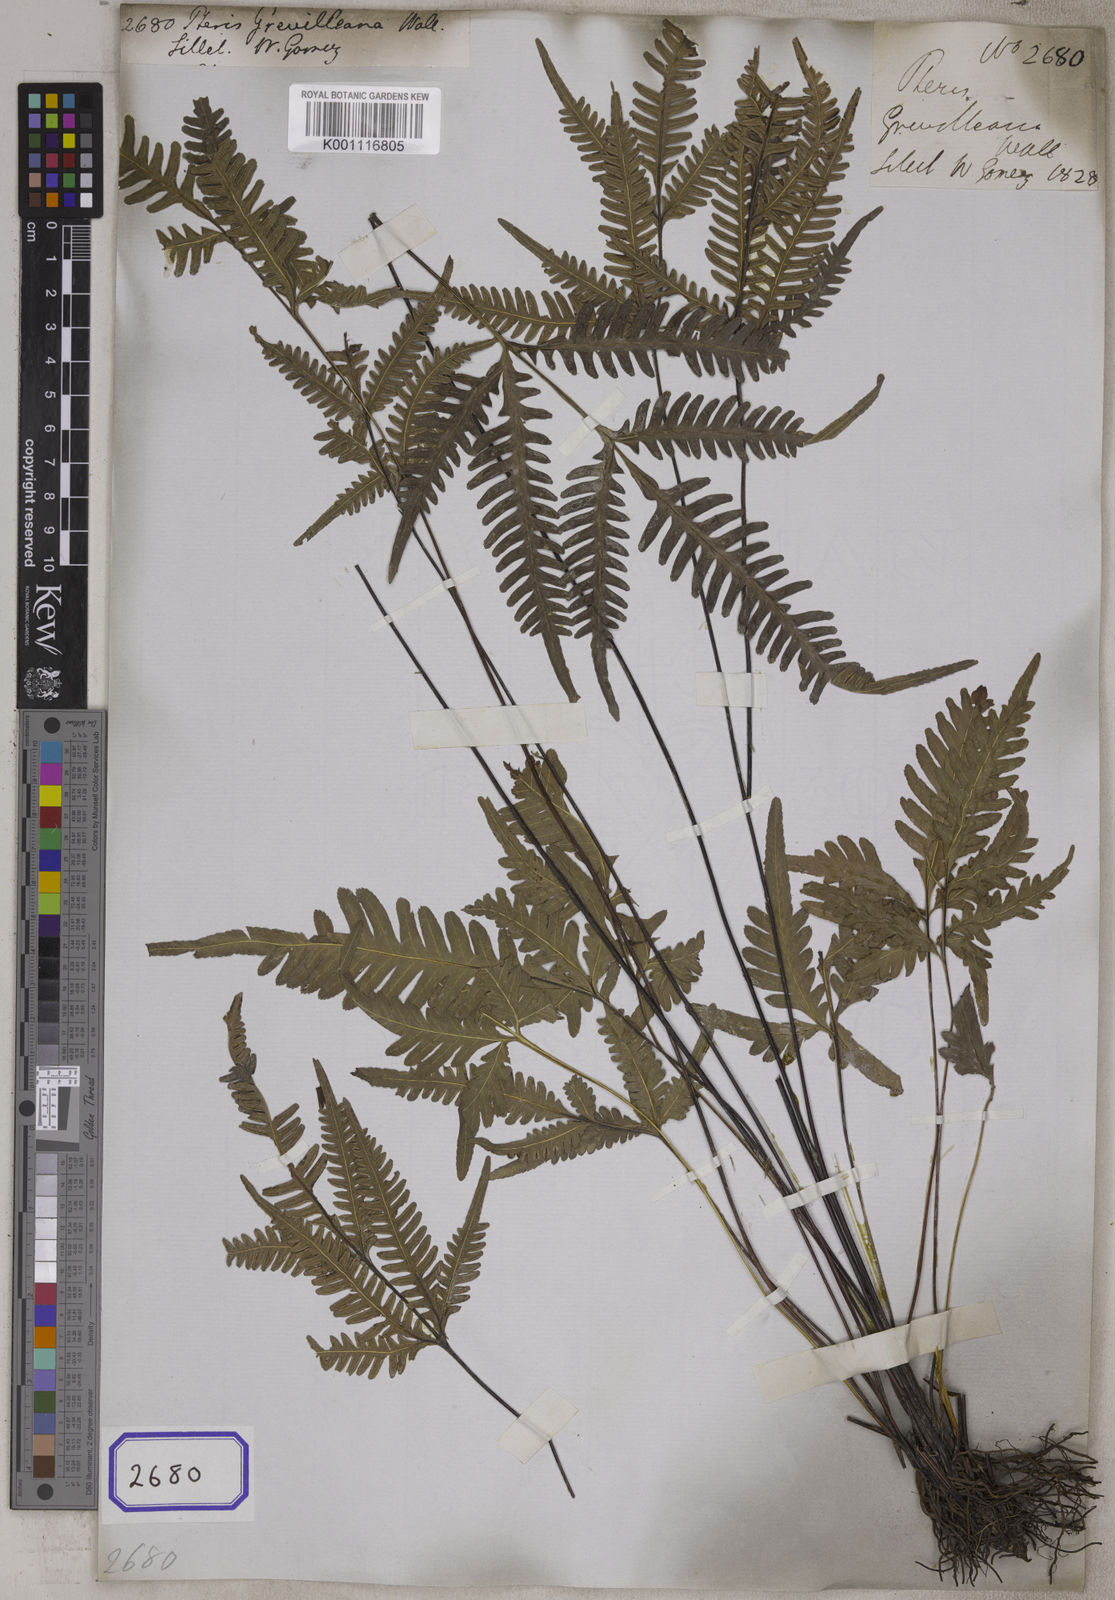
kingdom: Plantae
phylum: Tracheophyta
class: Polypodiopsida
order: Polypodiales
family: Pteridaceae
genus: Pteris
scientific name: Pteris grevilleana
